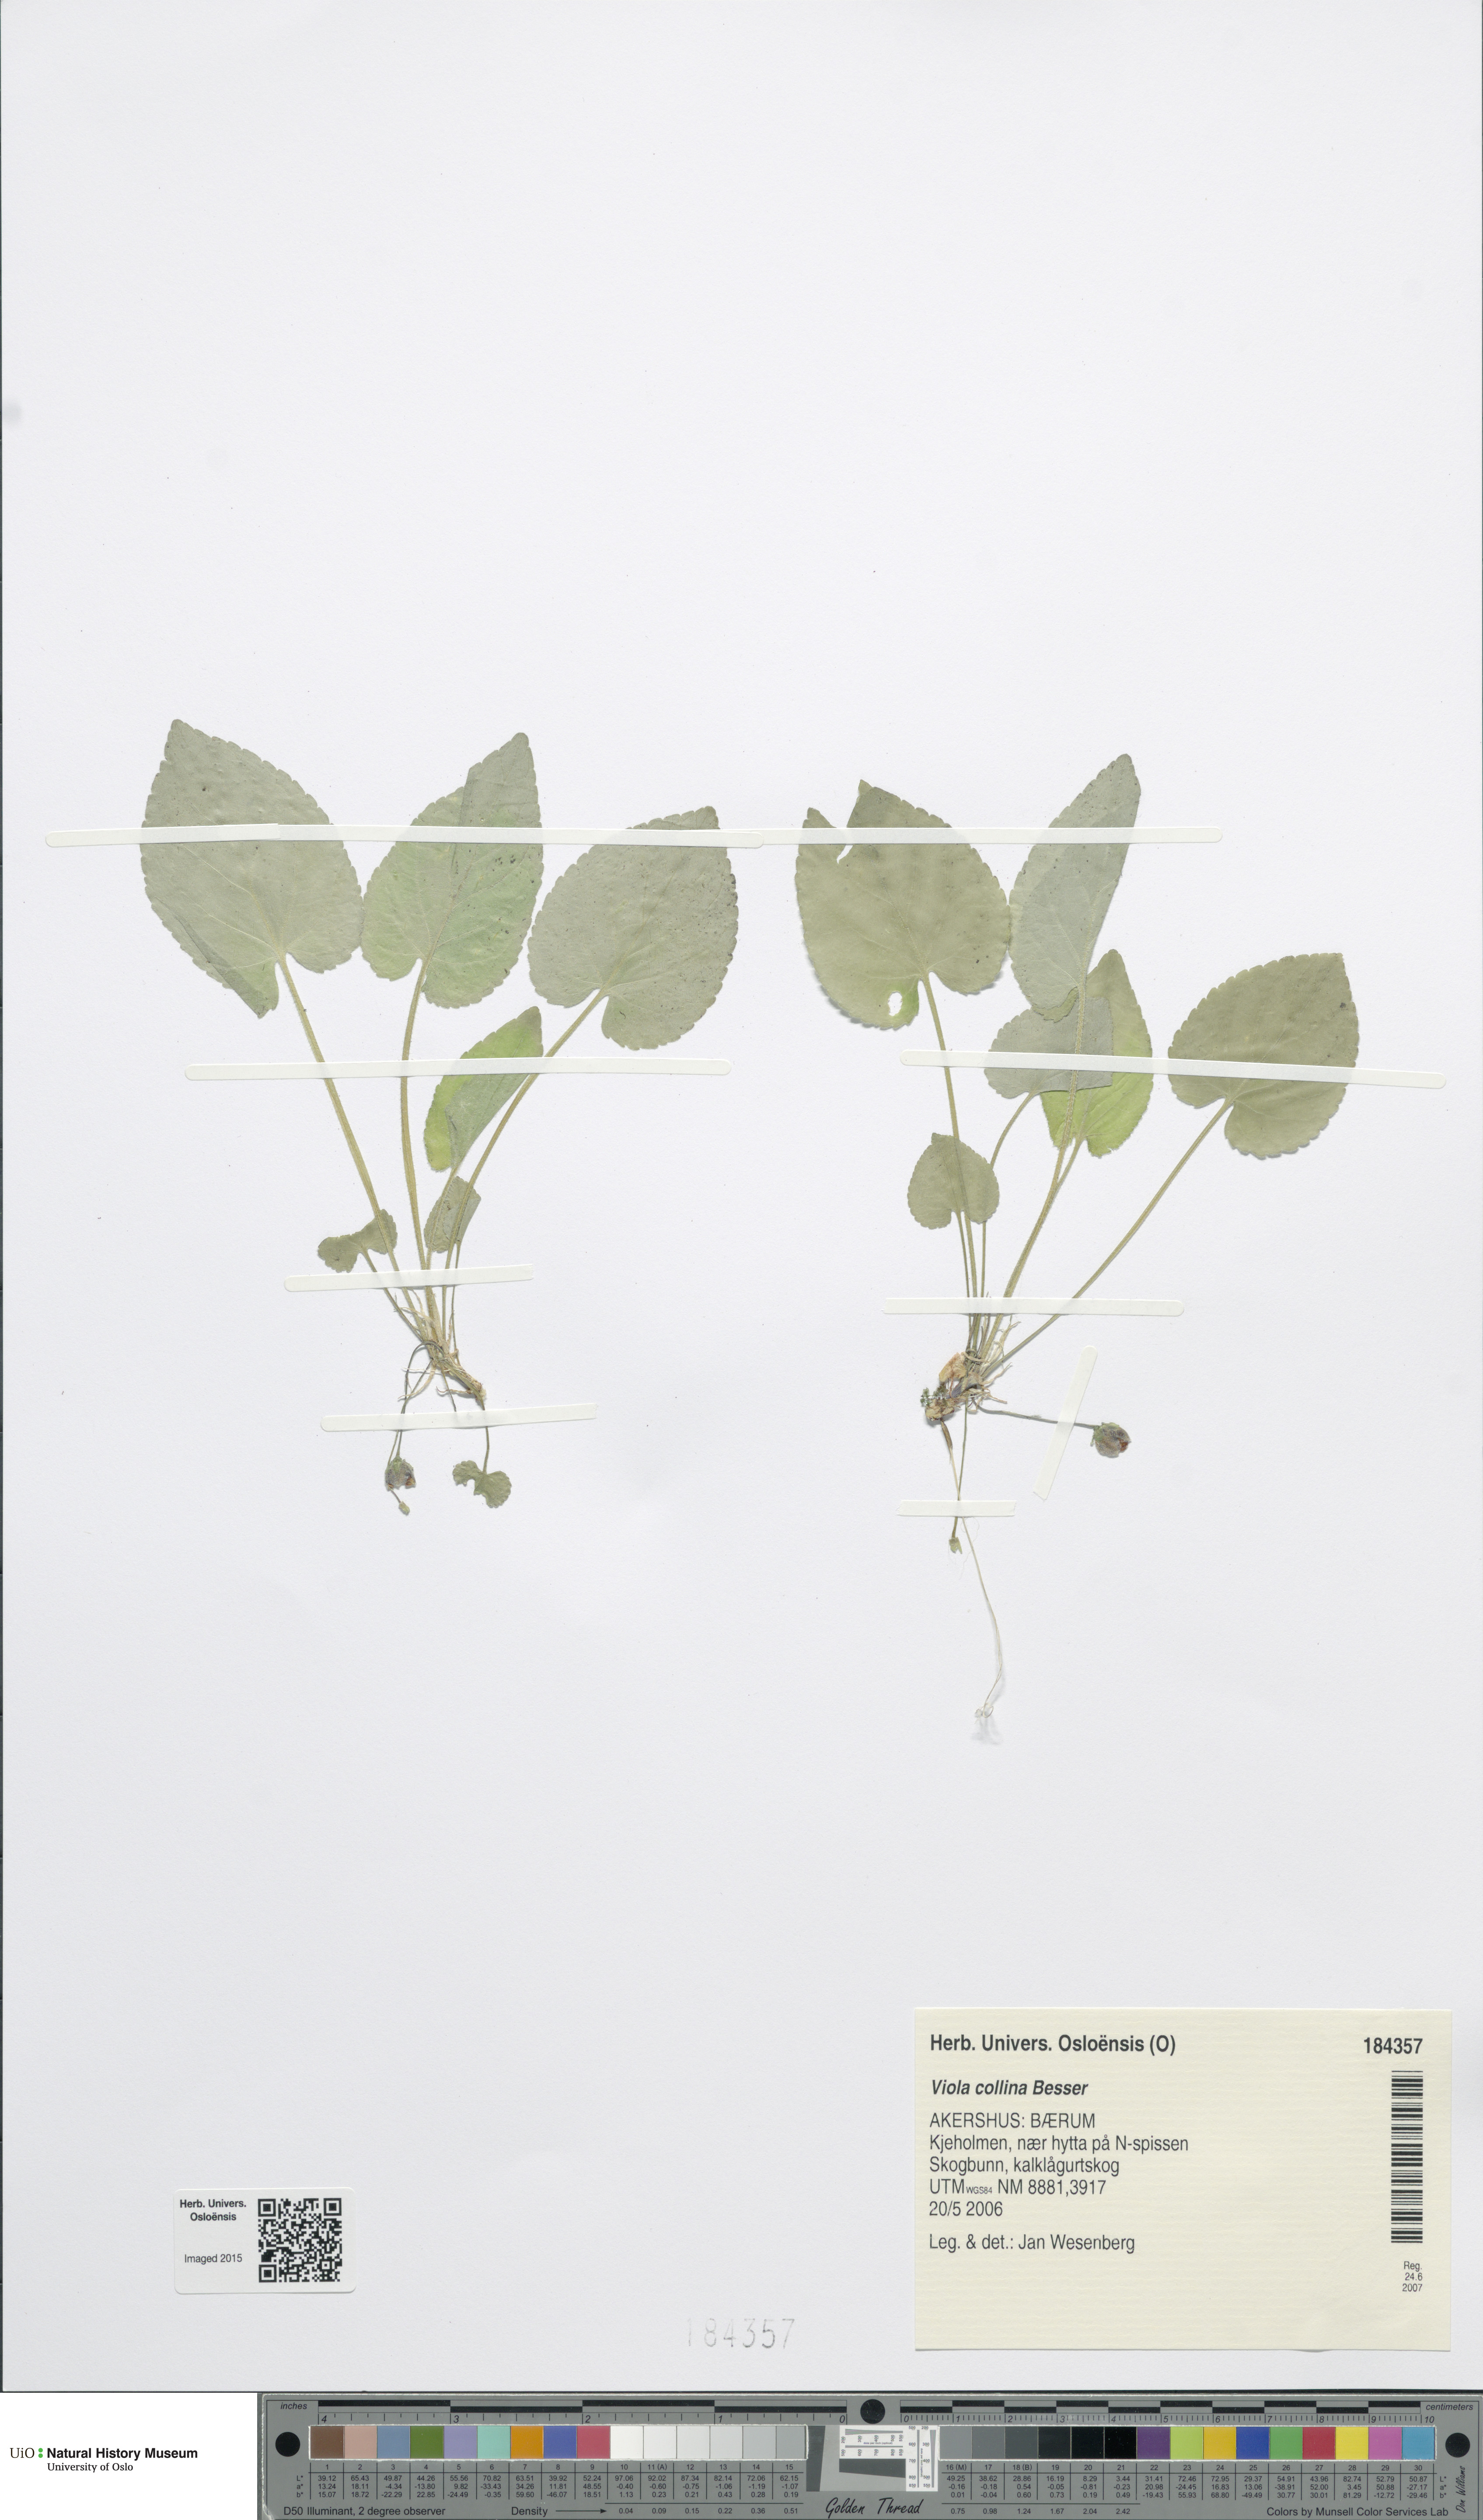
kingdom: Plantae
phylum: Tracheophyta
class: Magnoliopsida
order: Malpighiales
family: Violaceae
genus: Viola
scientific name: Viola collina
